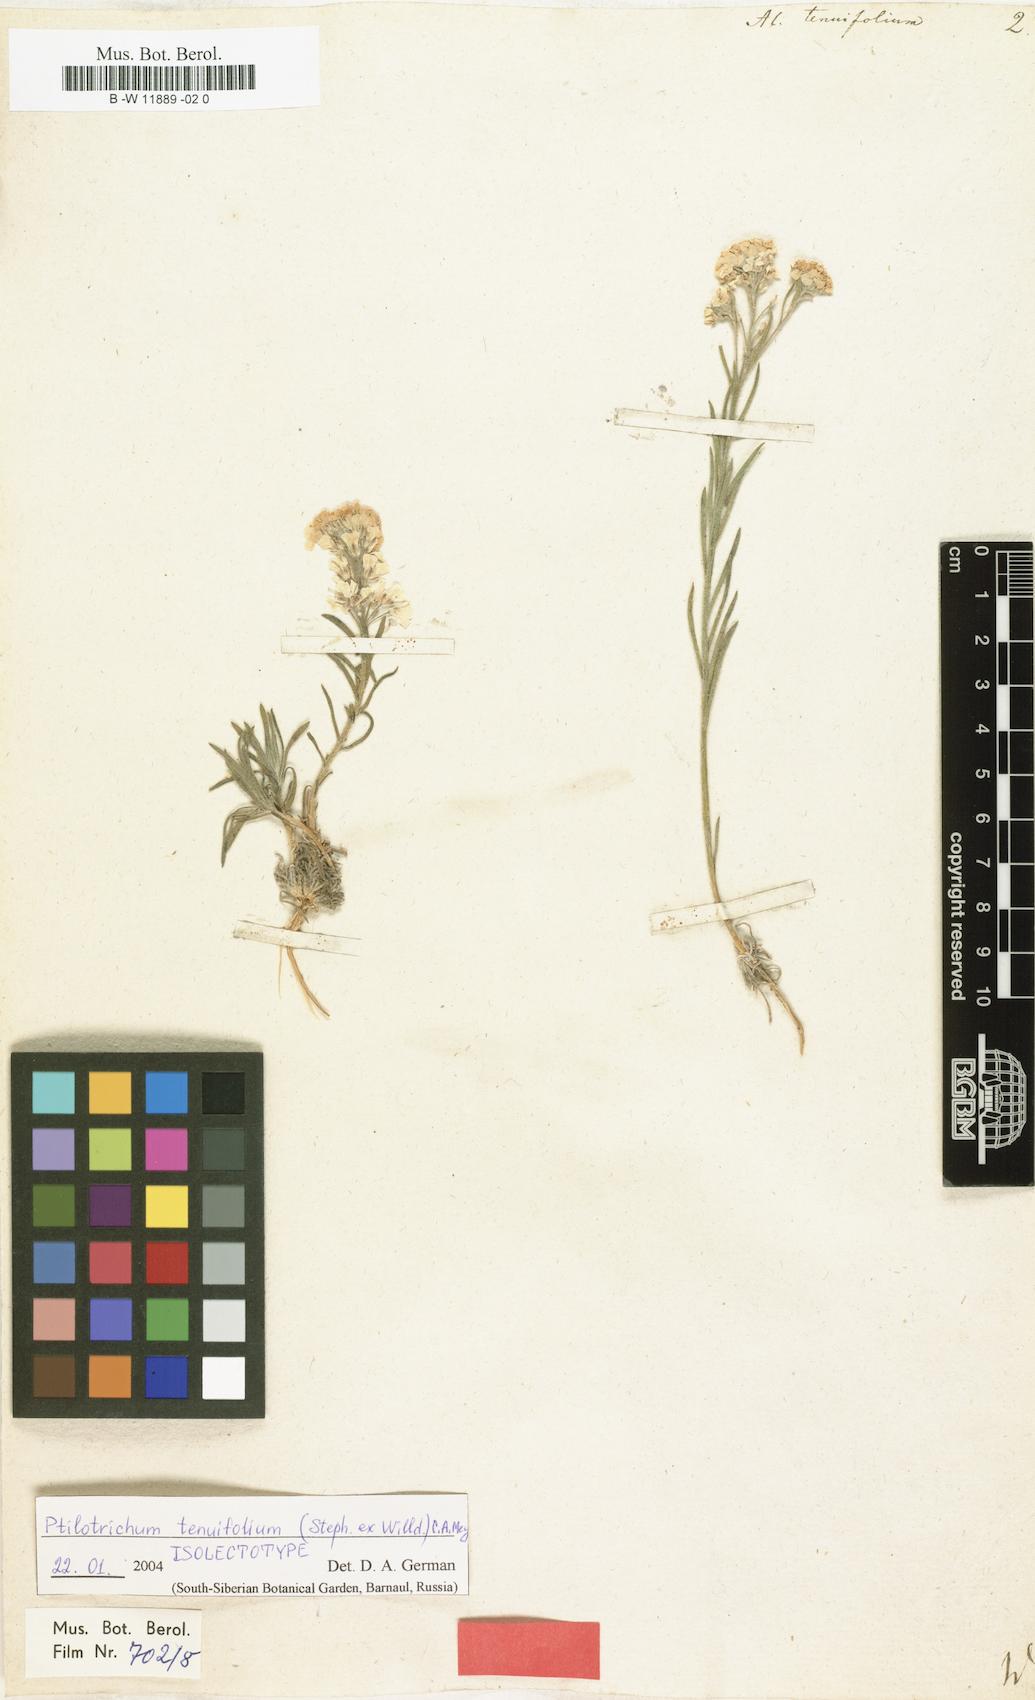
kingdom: Plantae
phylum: Tracheophyta
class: Magnoliopsida
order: Brassicales
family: Brassicaceae
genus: Stevenia
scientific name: Stevenia tenuifolia
